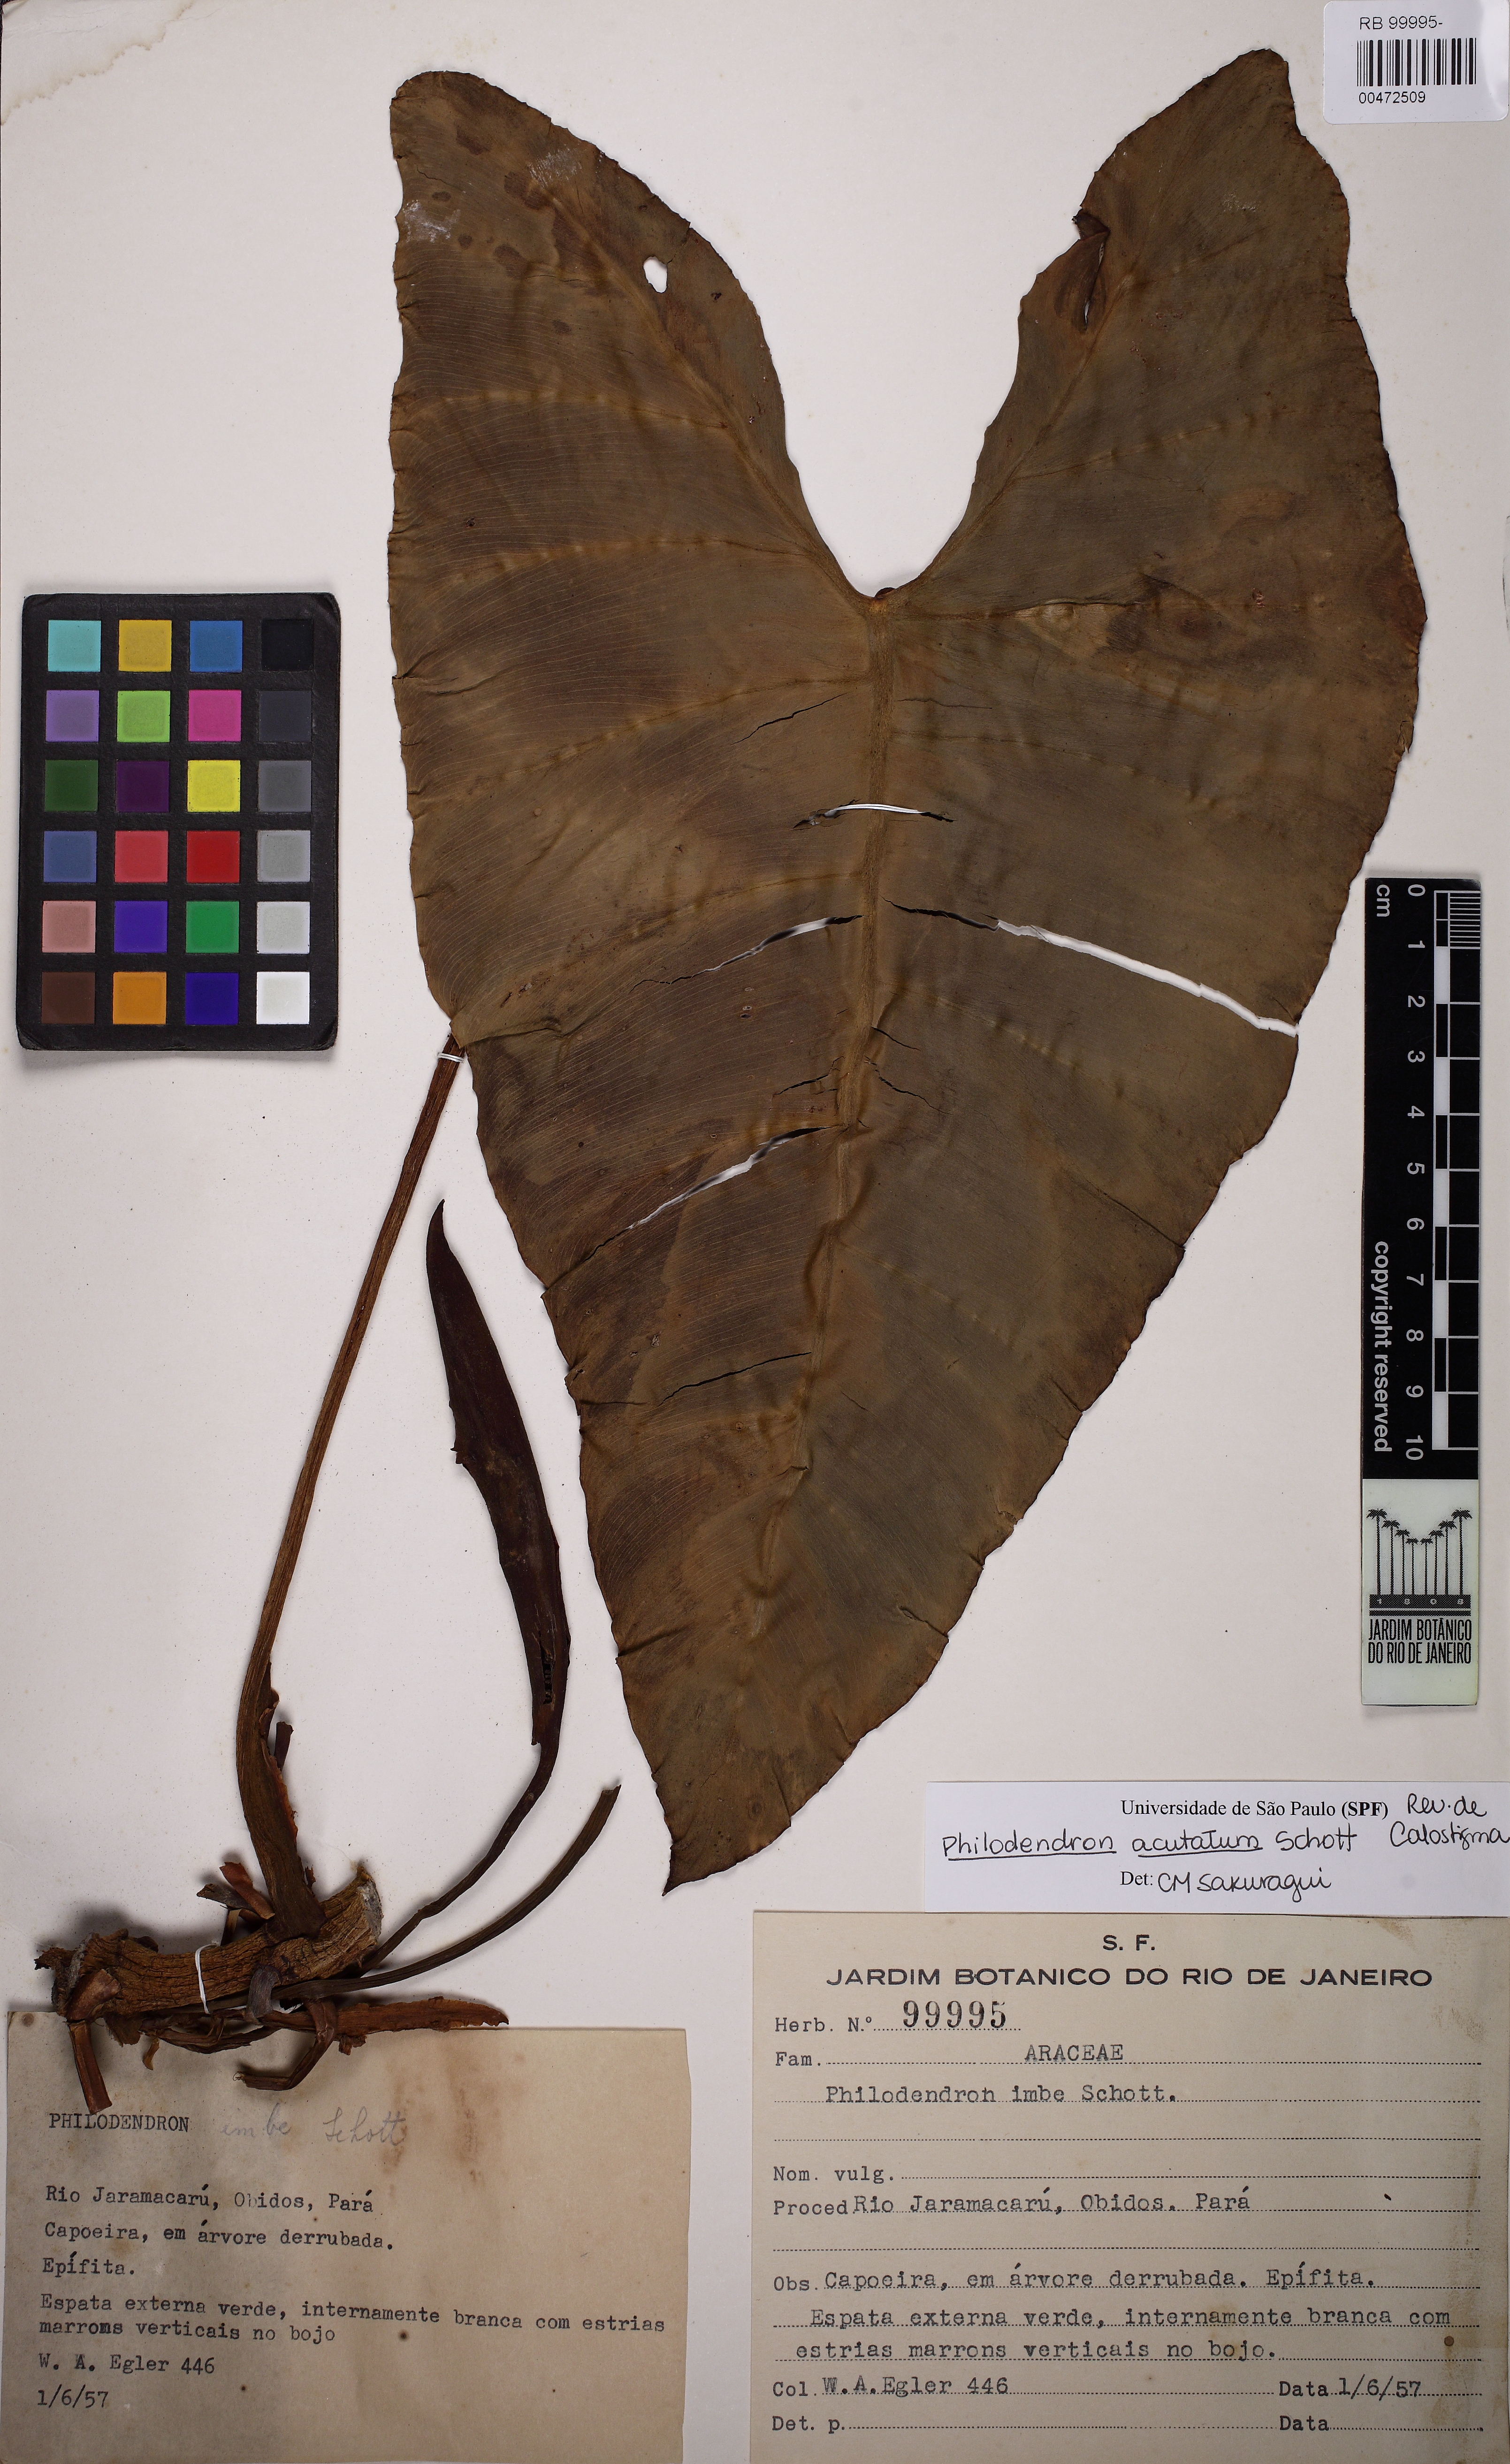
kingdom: Plantae
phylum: Tracheophyta
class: Liliopsida
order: Alismatales
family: Araceae
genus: Philodendron
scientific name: Philodendron quinquenervium
